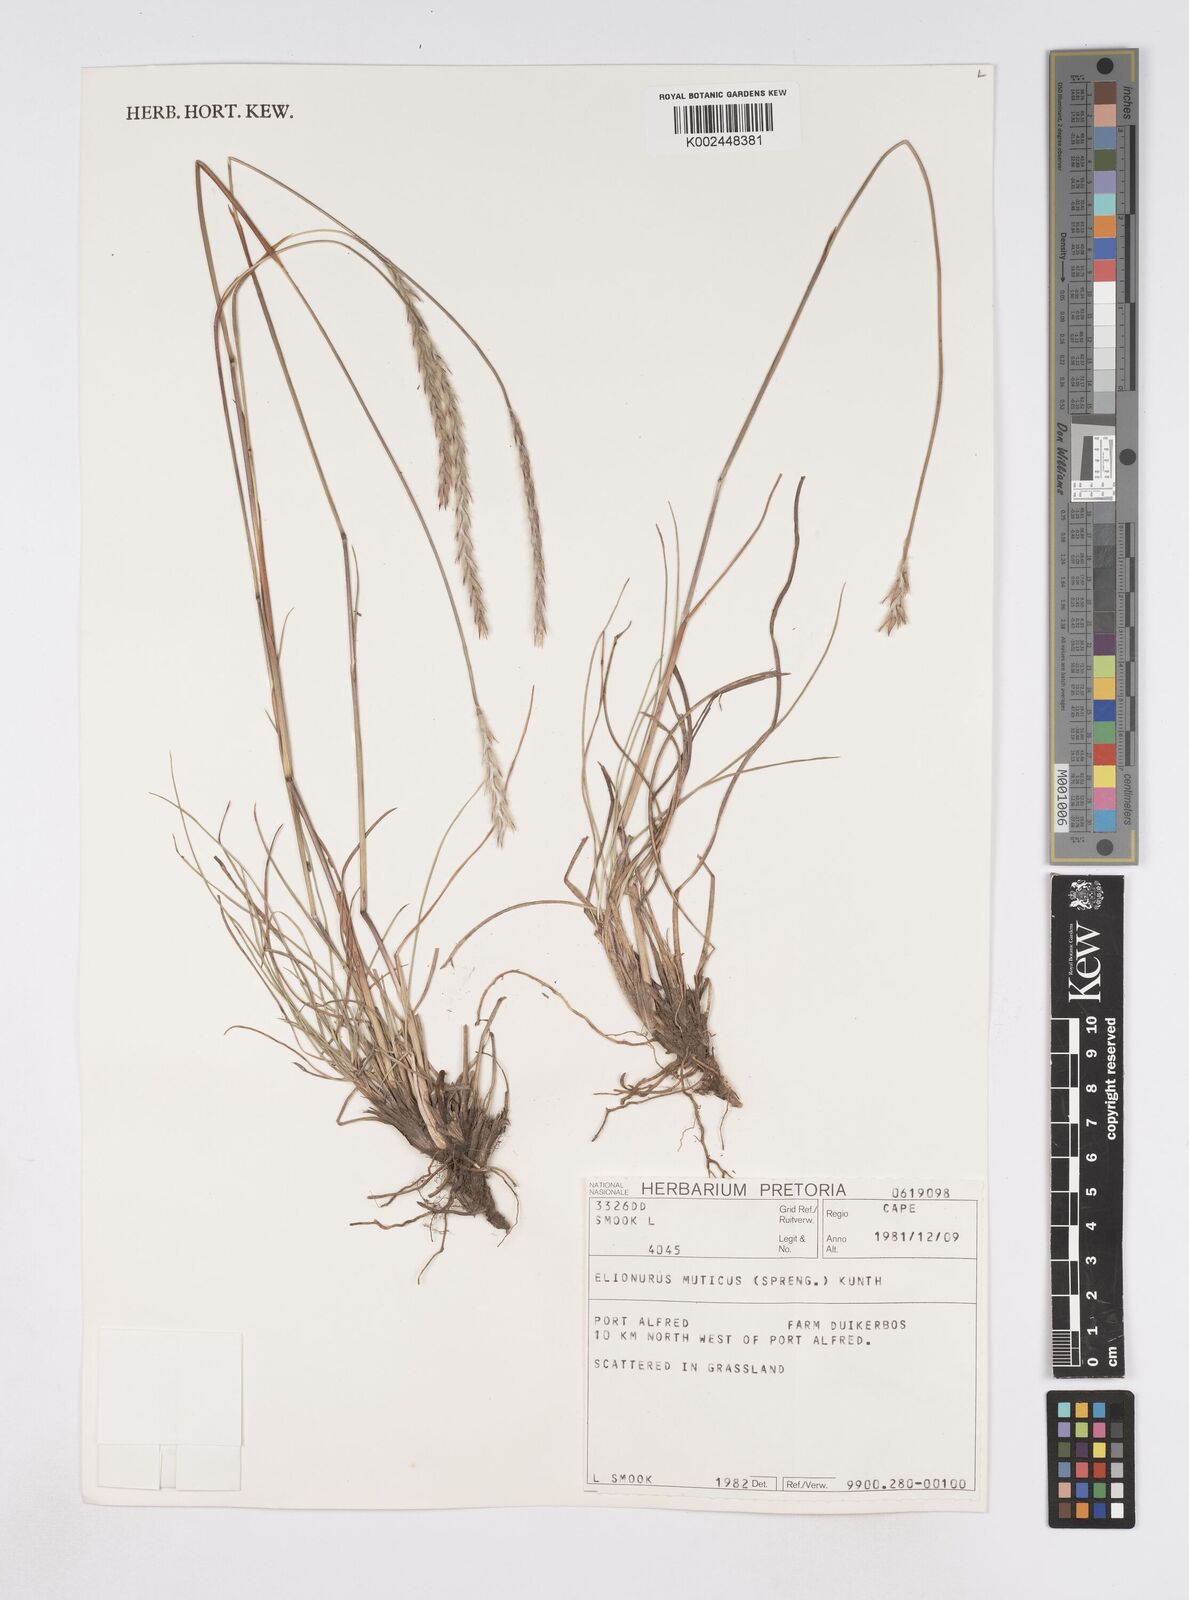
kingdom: Plantae
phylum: Tracheophyta
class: Liliopsida
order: Poales
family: Poaceae
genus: Elionurus
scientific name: Elionurus muticus
